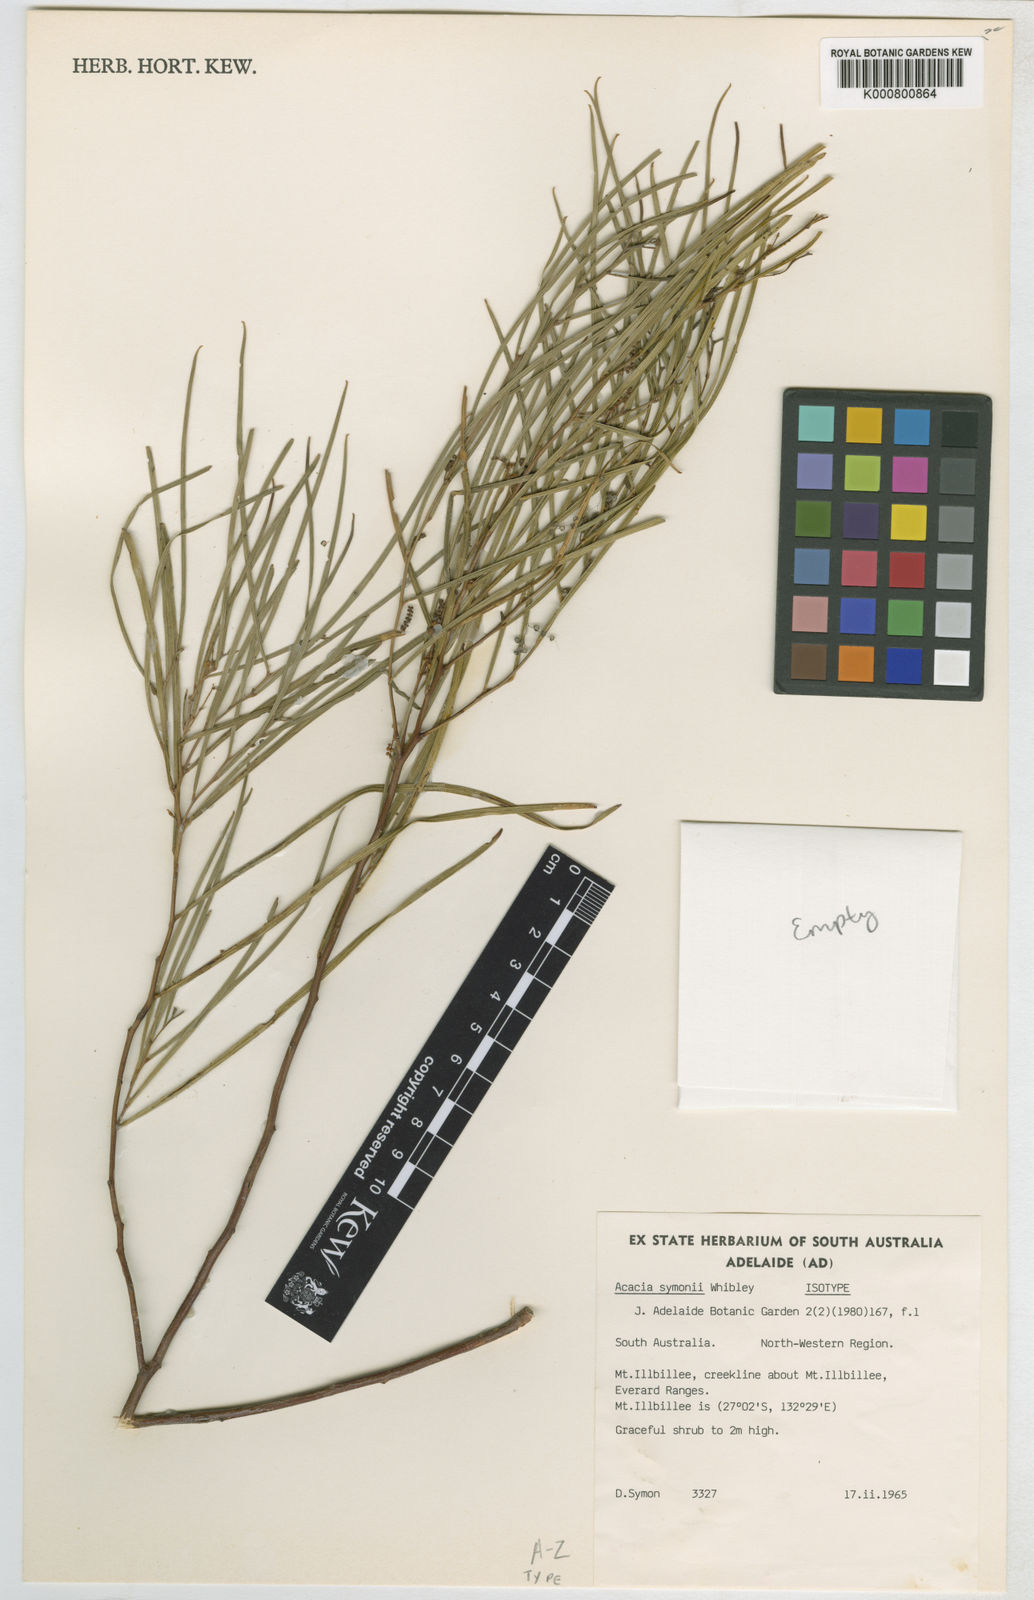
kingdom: Plantae
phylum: Tracheophyta
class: Magnoliopsida
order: Fabales
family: Fabaceae
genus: Acacia
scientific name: Acacia symonii
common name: Symon's wattle
